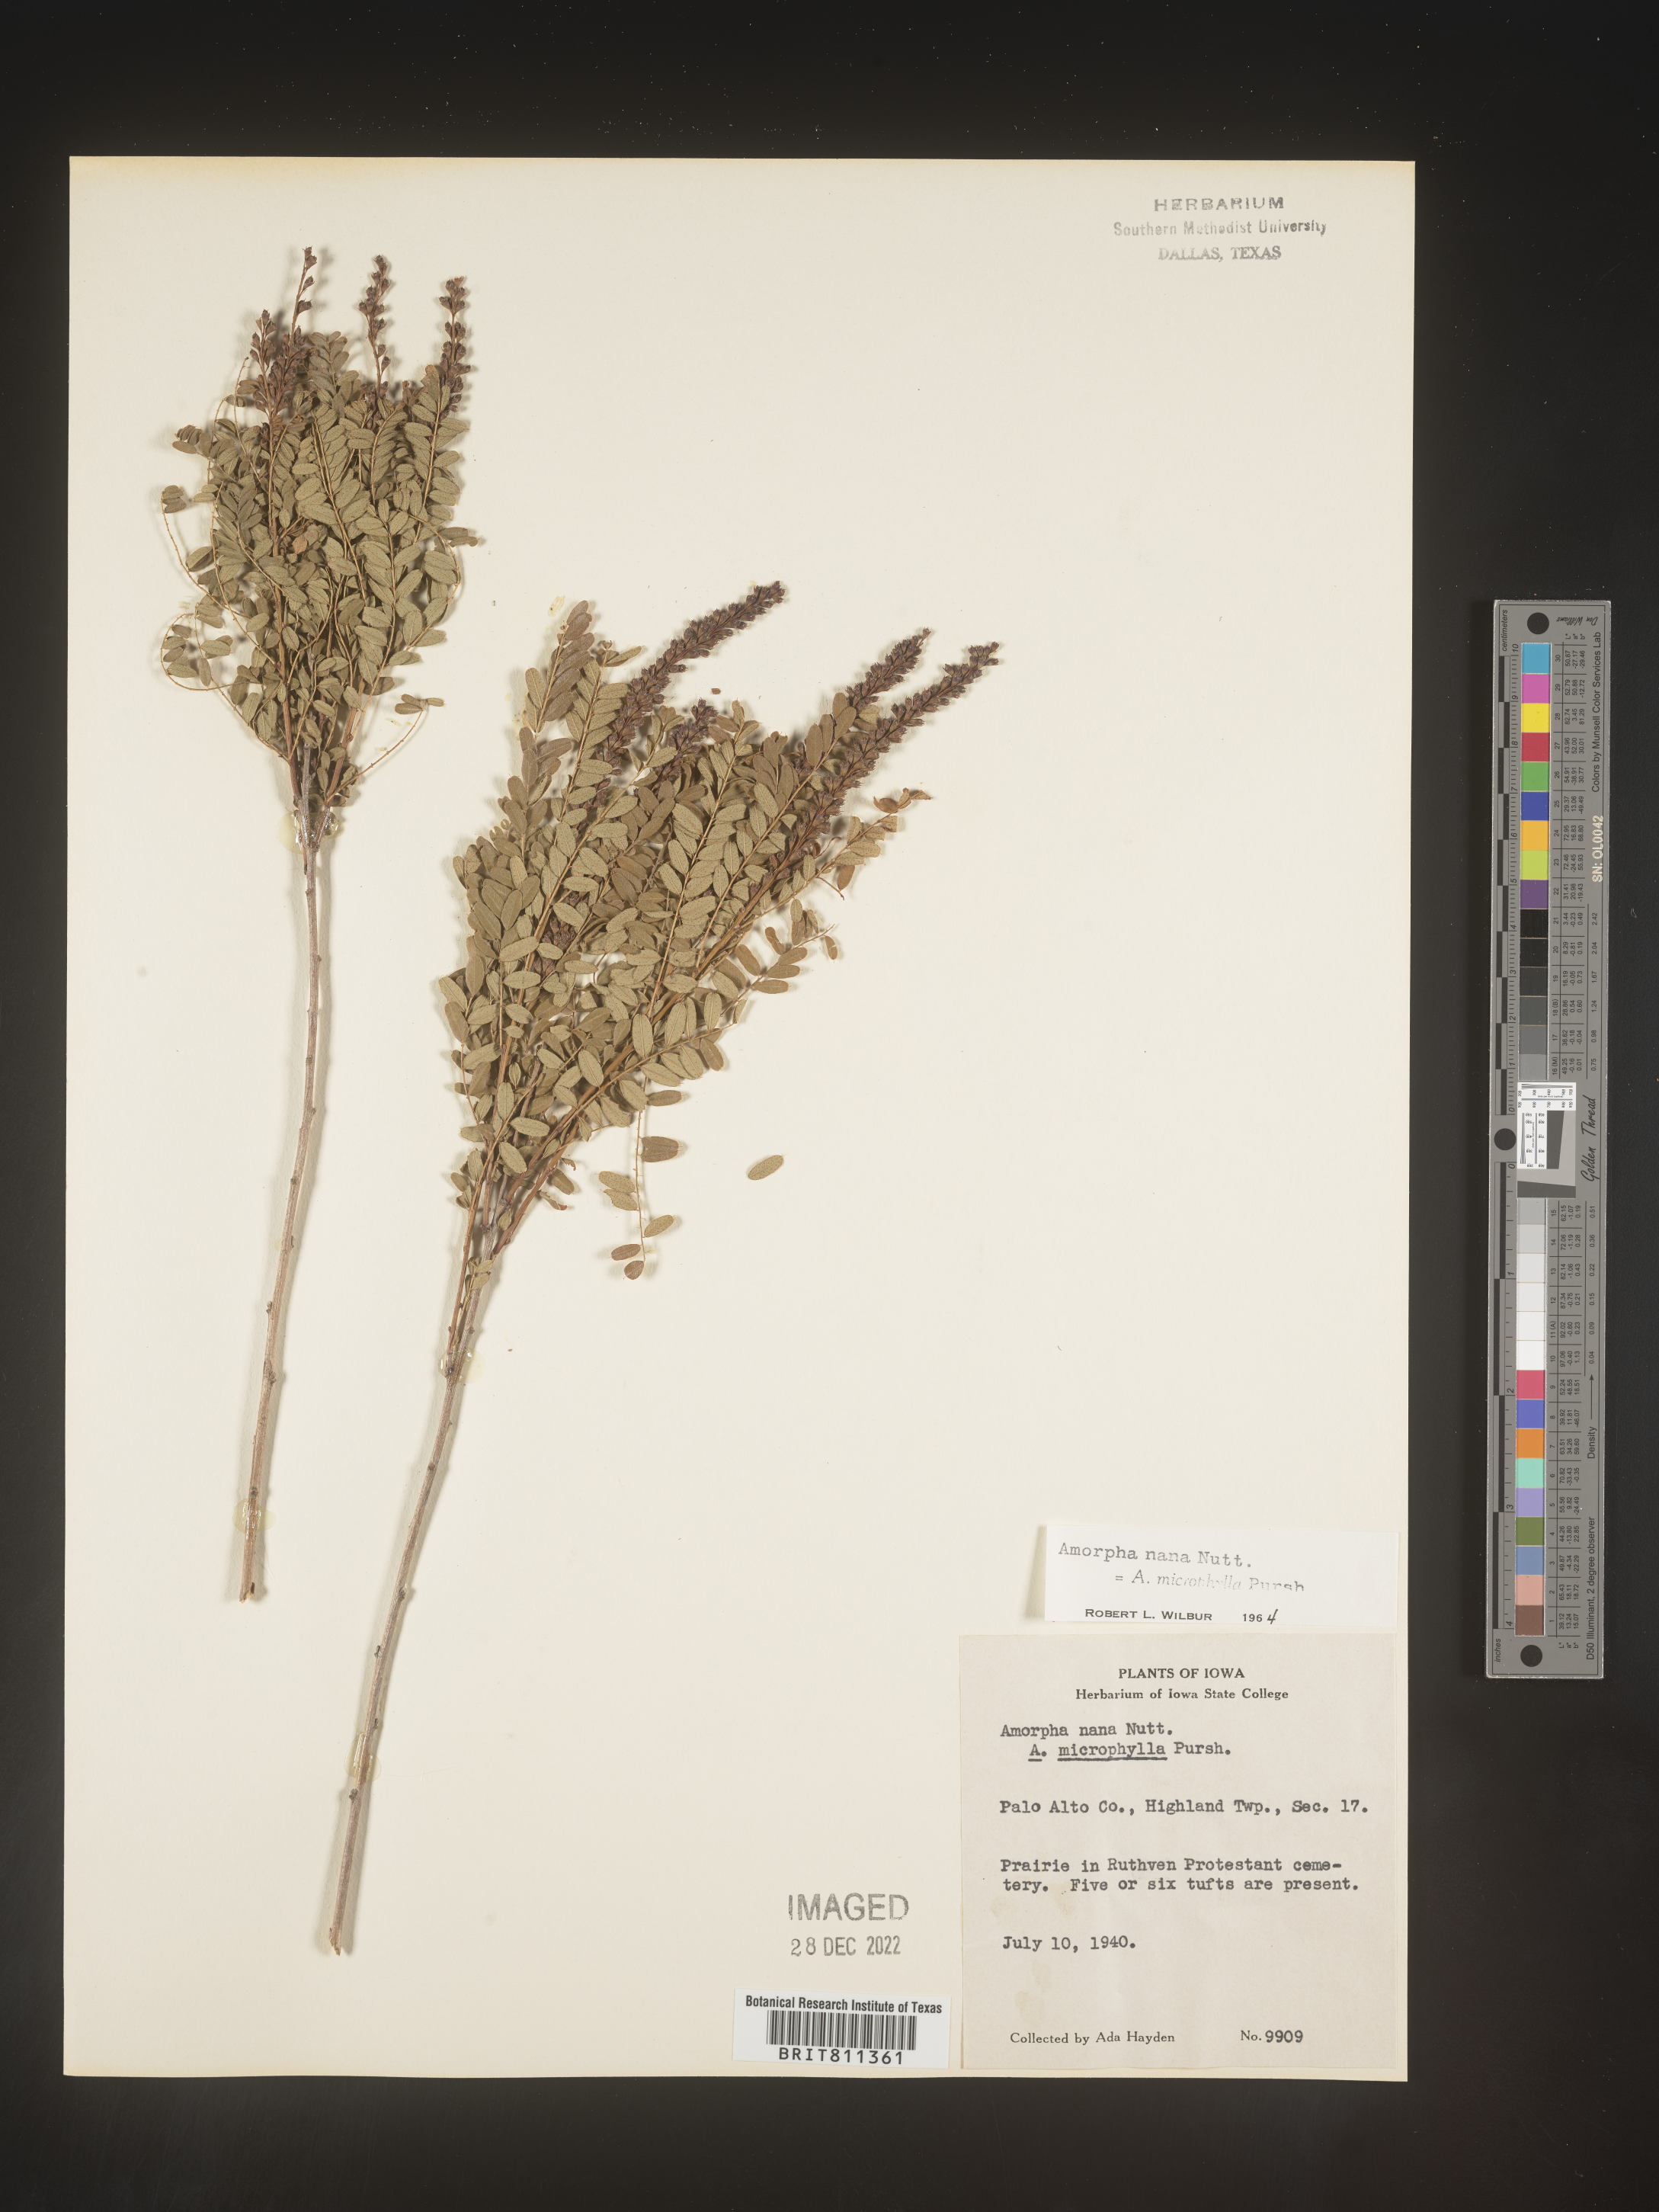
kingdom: Plantae
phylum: Tracheophyta
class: Magnoliopsida
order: Fabales
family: Fabaceae
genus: Amorpha
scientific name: Amorpha nana
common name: Fragrant false indigo
